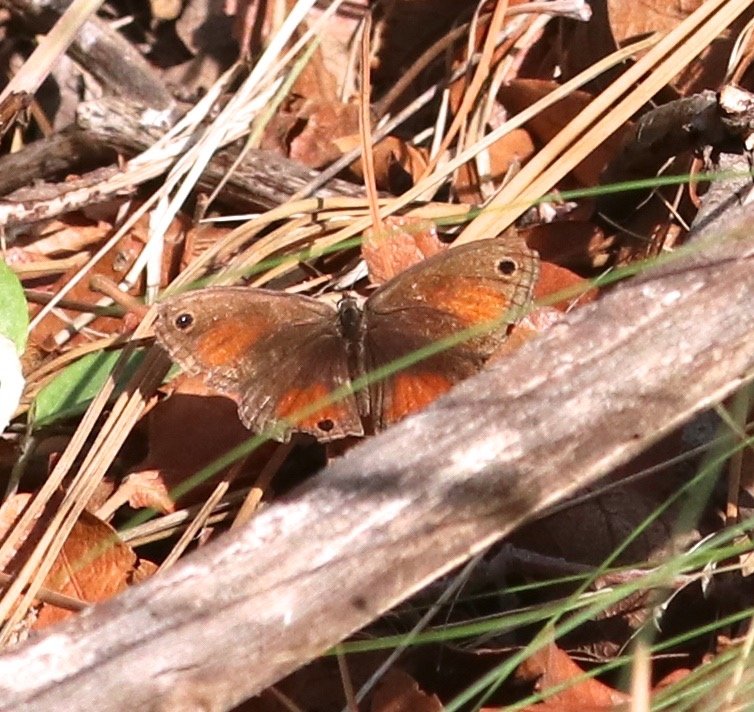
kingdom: Animalia
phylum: Arthropoda
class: Insecta
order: Lepidoptera
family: Nymphalidae
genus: Euptychia
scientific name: Euptychia rubricata
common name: Red Satyr
